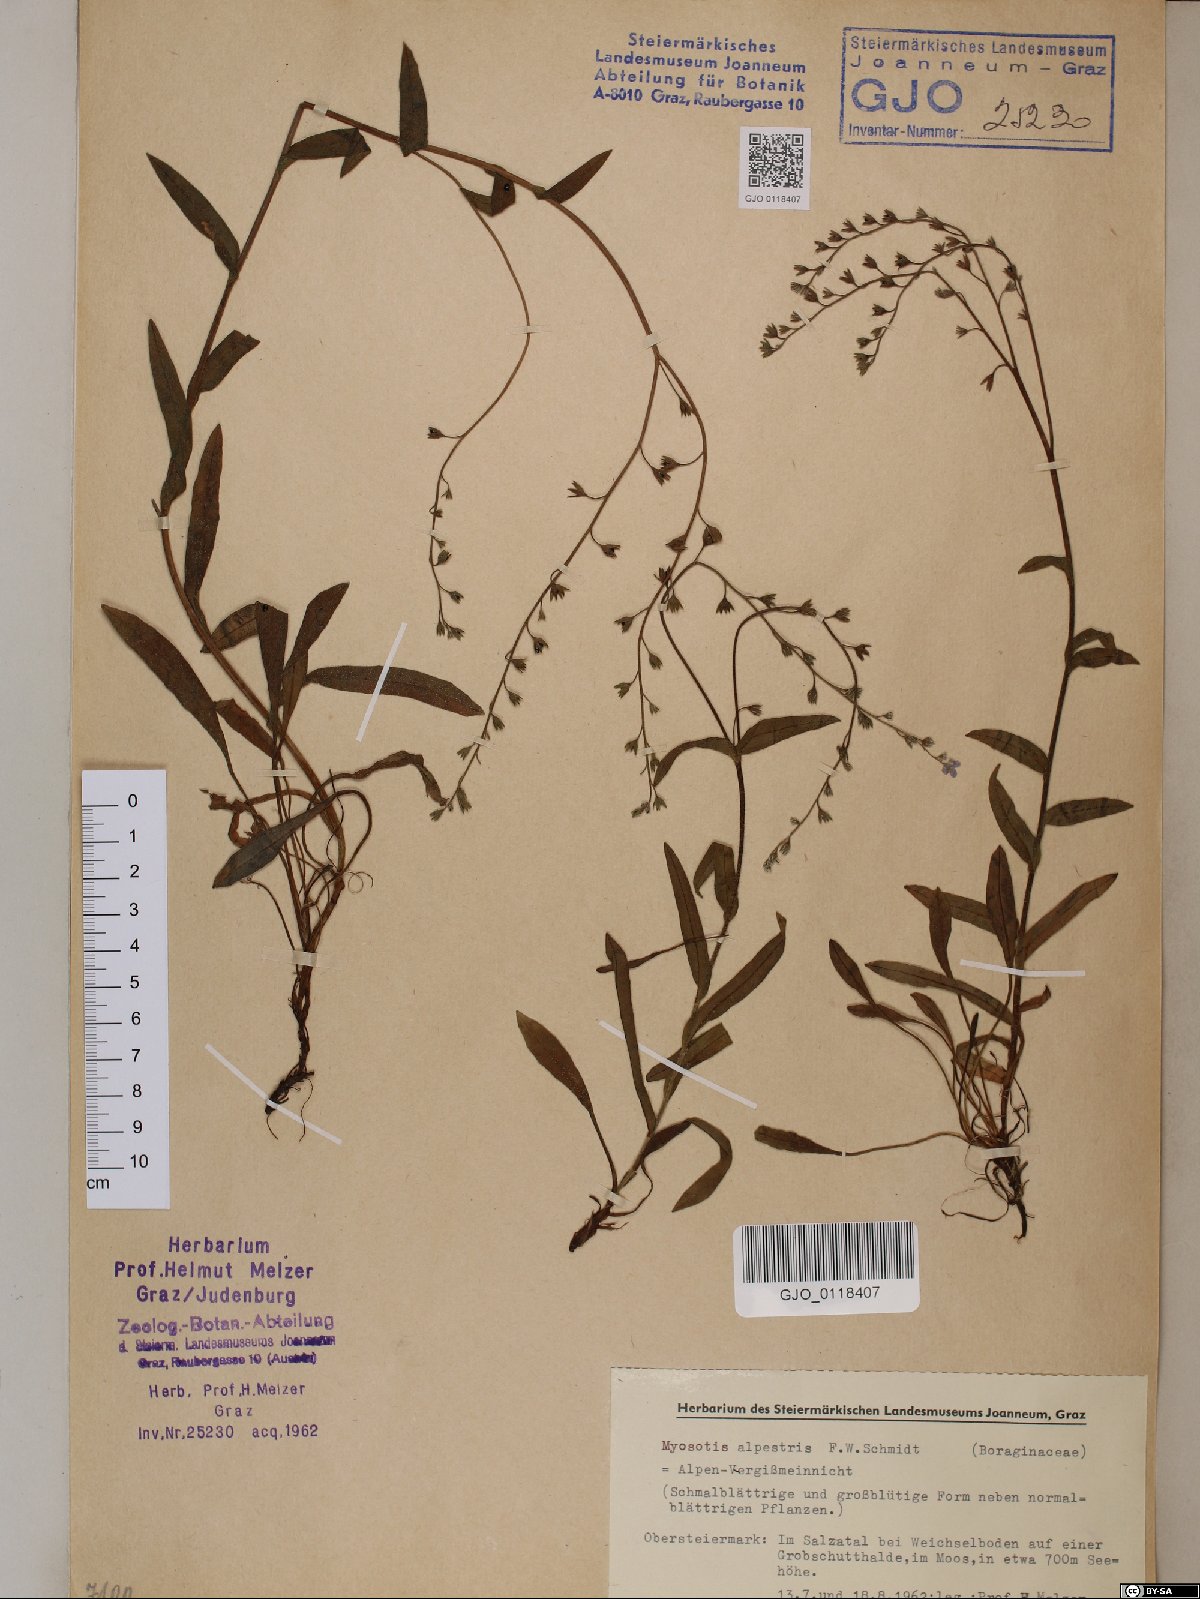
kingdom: Plantae
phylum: Tracheophyta
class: Magnoliopsida
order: Boraginales
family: Boraginaceae
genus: Myosotis
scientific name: Myosotis alpestris
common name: Alpine forget-me-not
